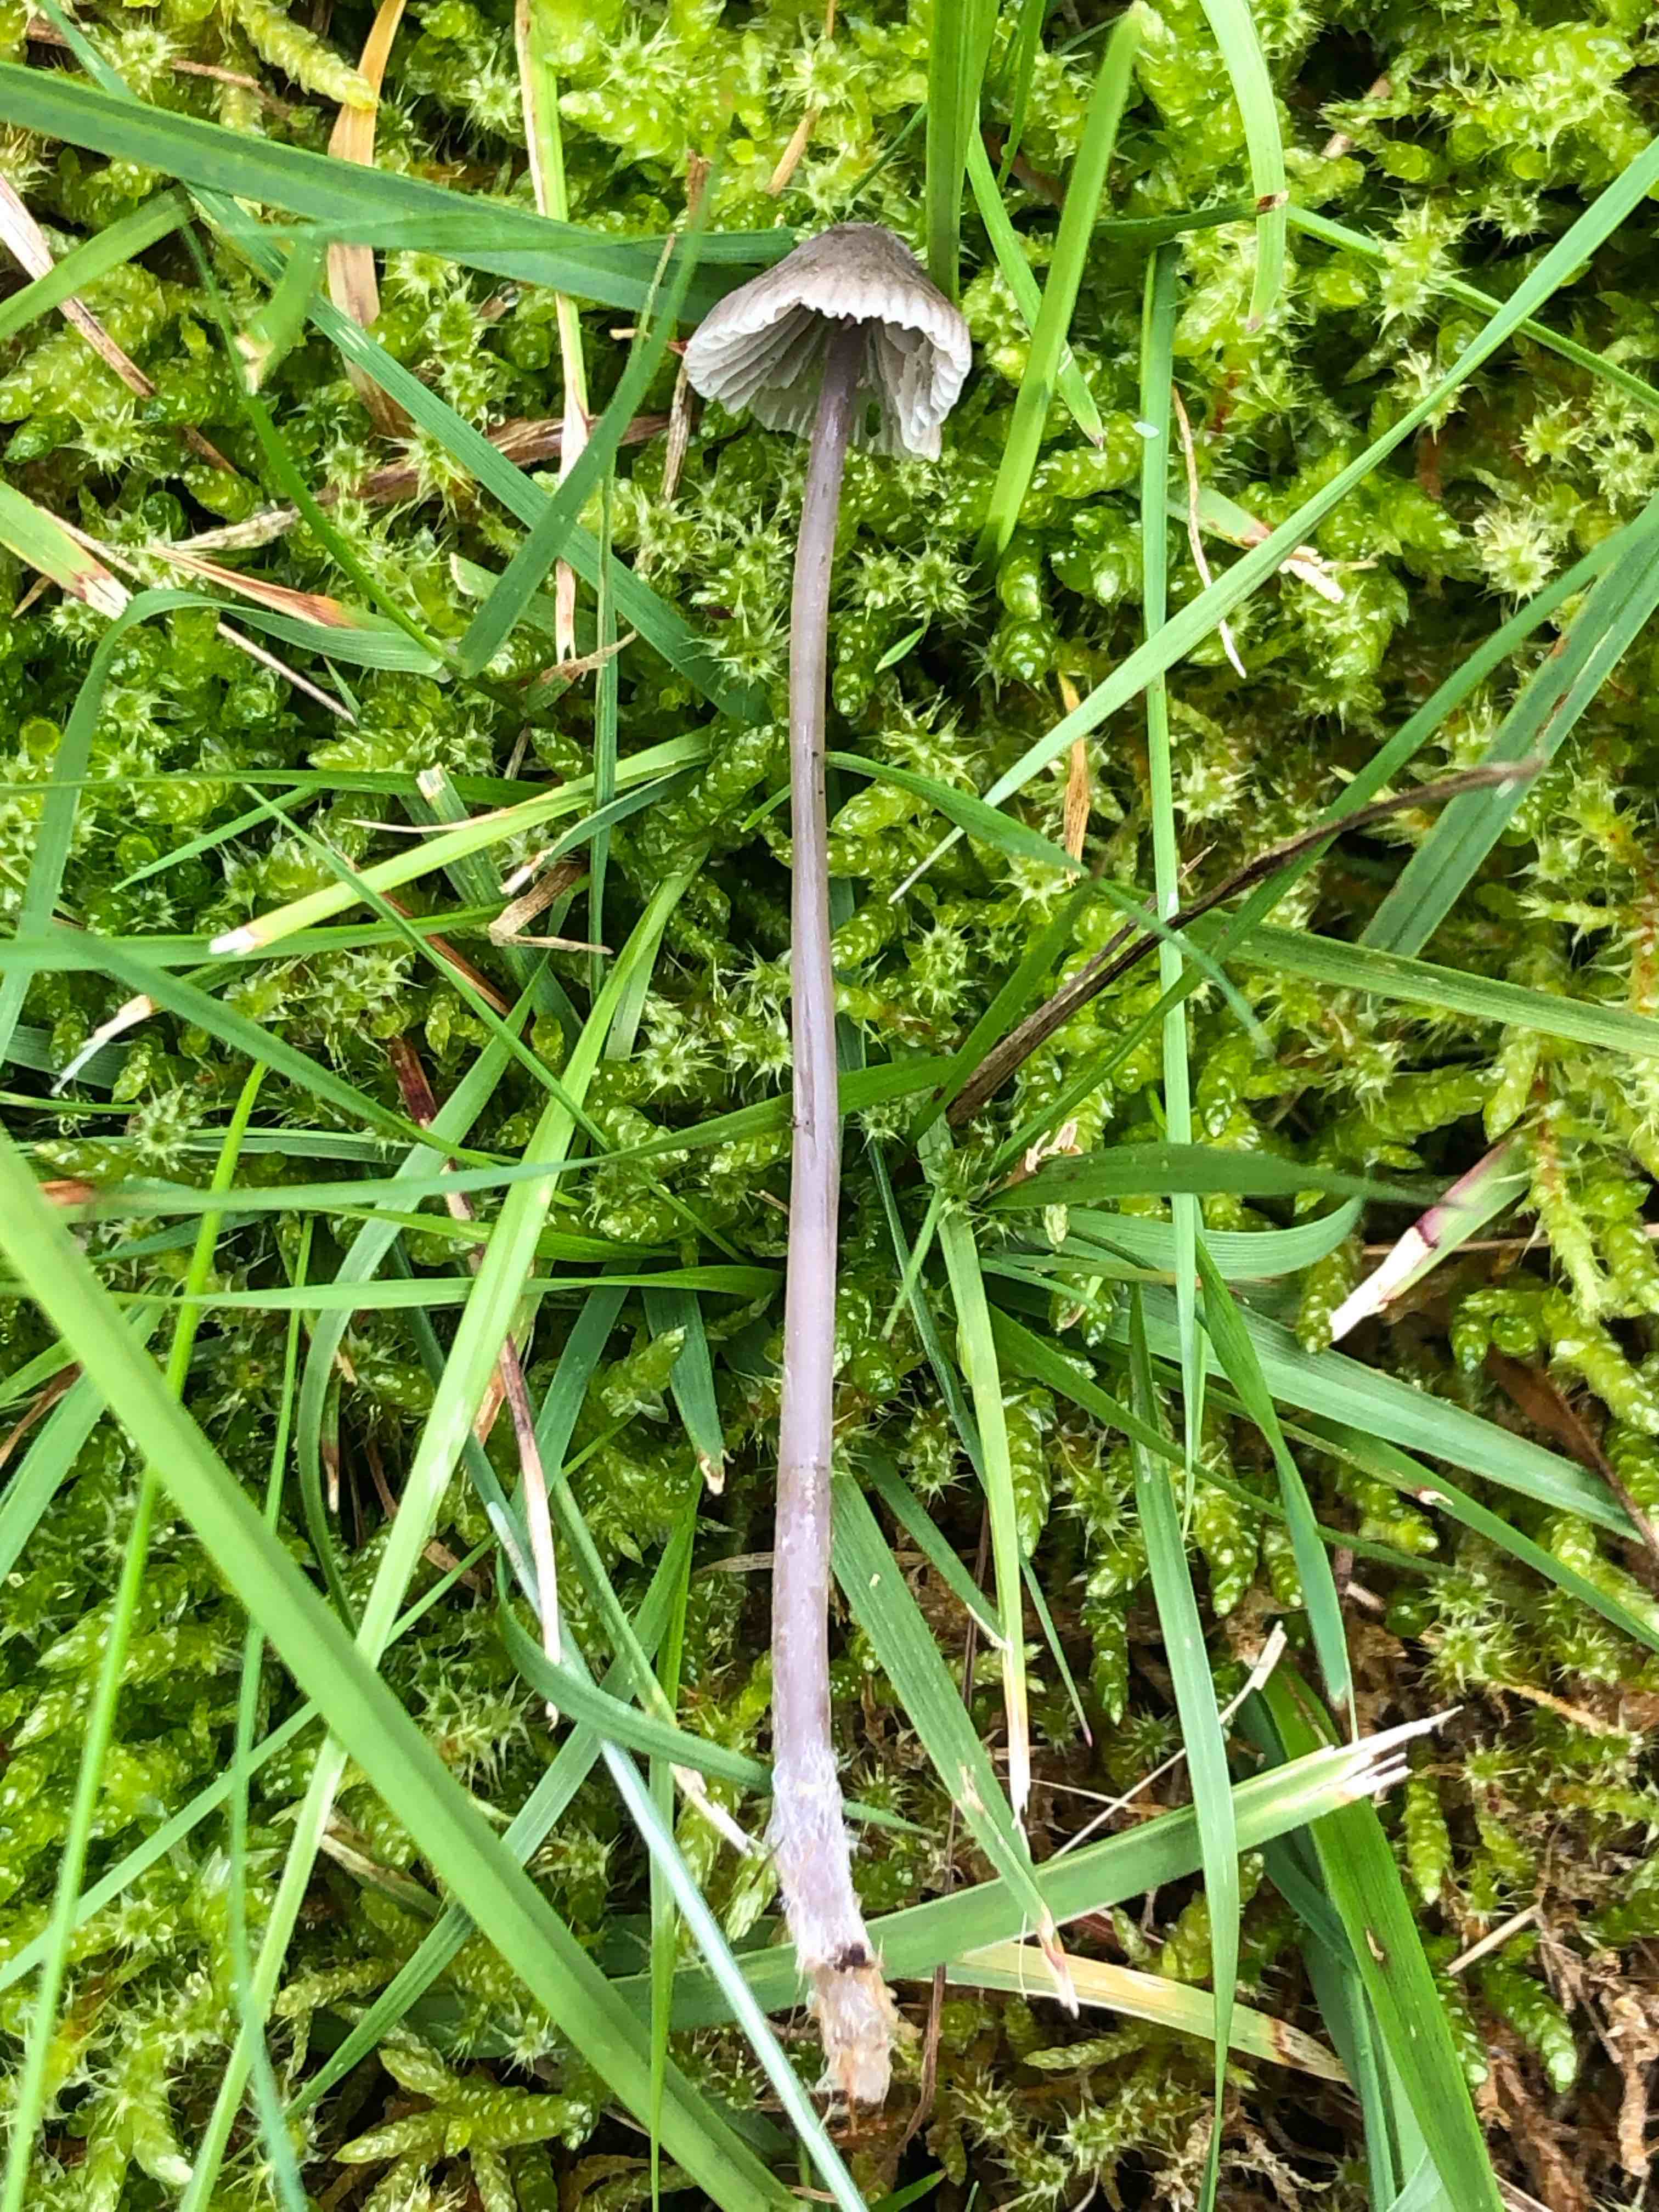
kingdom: Fungi
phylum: Basidiomycota
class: Agaricomycetes
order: Agaricales
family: Mycenaceae
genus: Mycena
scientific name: Mycena
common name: huesvamp
